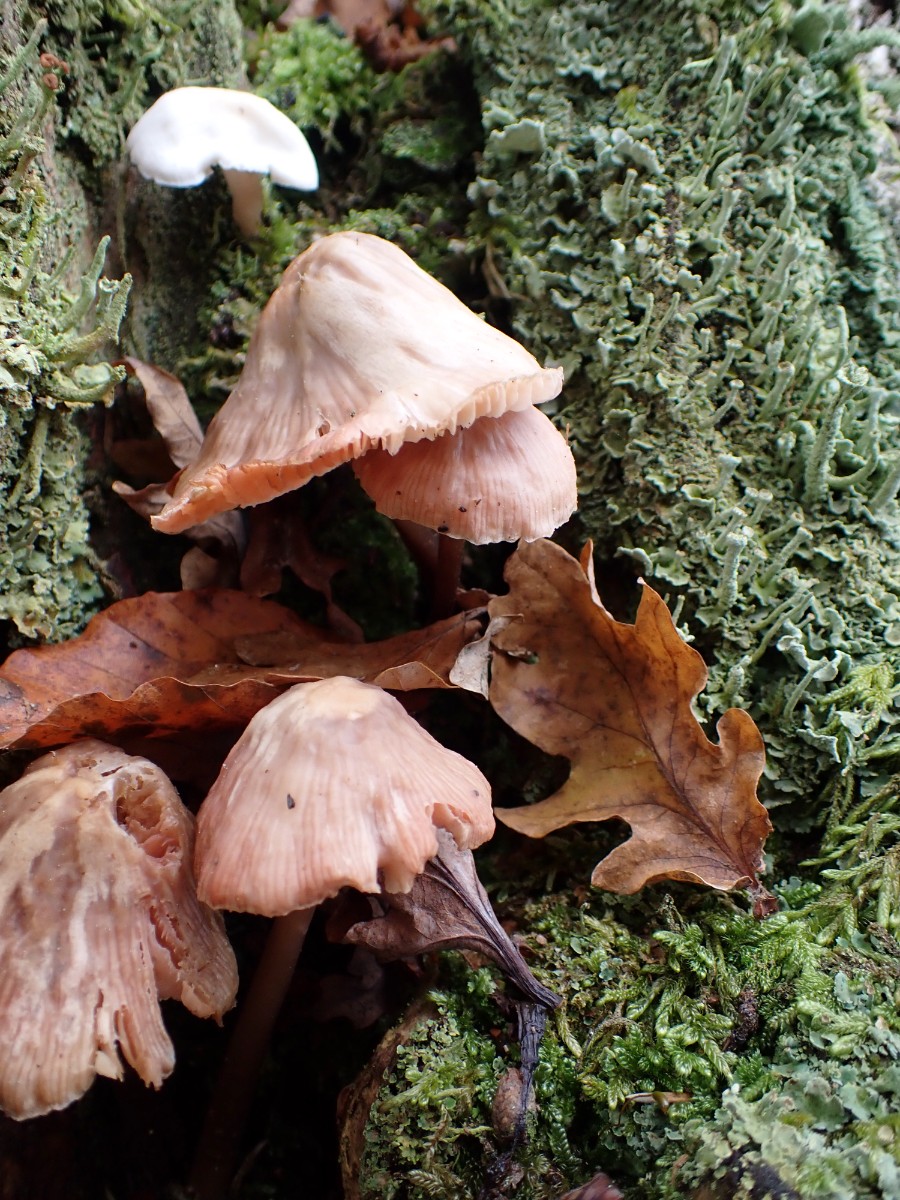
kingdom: Fungi
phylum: Basidiomycota
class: Agaricomycetes
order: Agaricales
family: Mycenaceae
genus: Mycena
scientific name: Mycena galericulata
